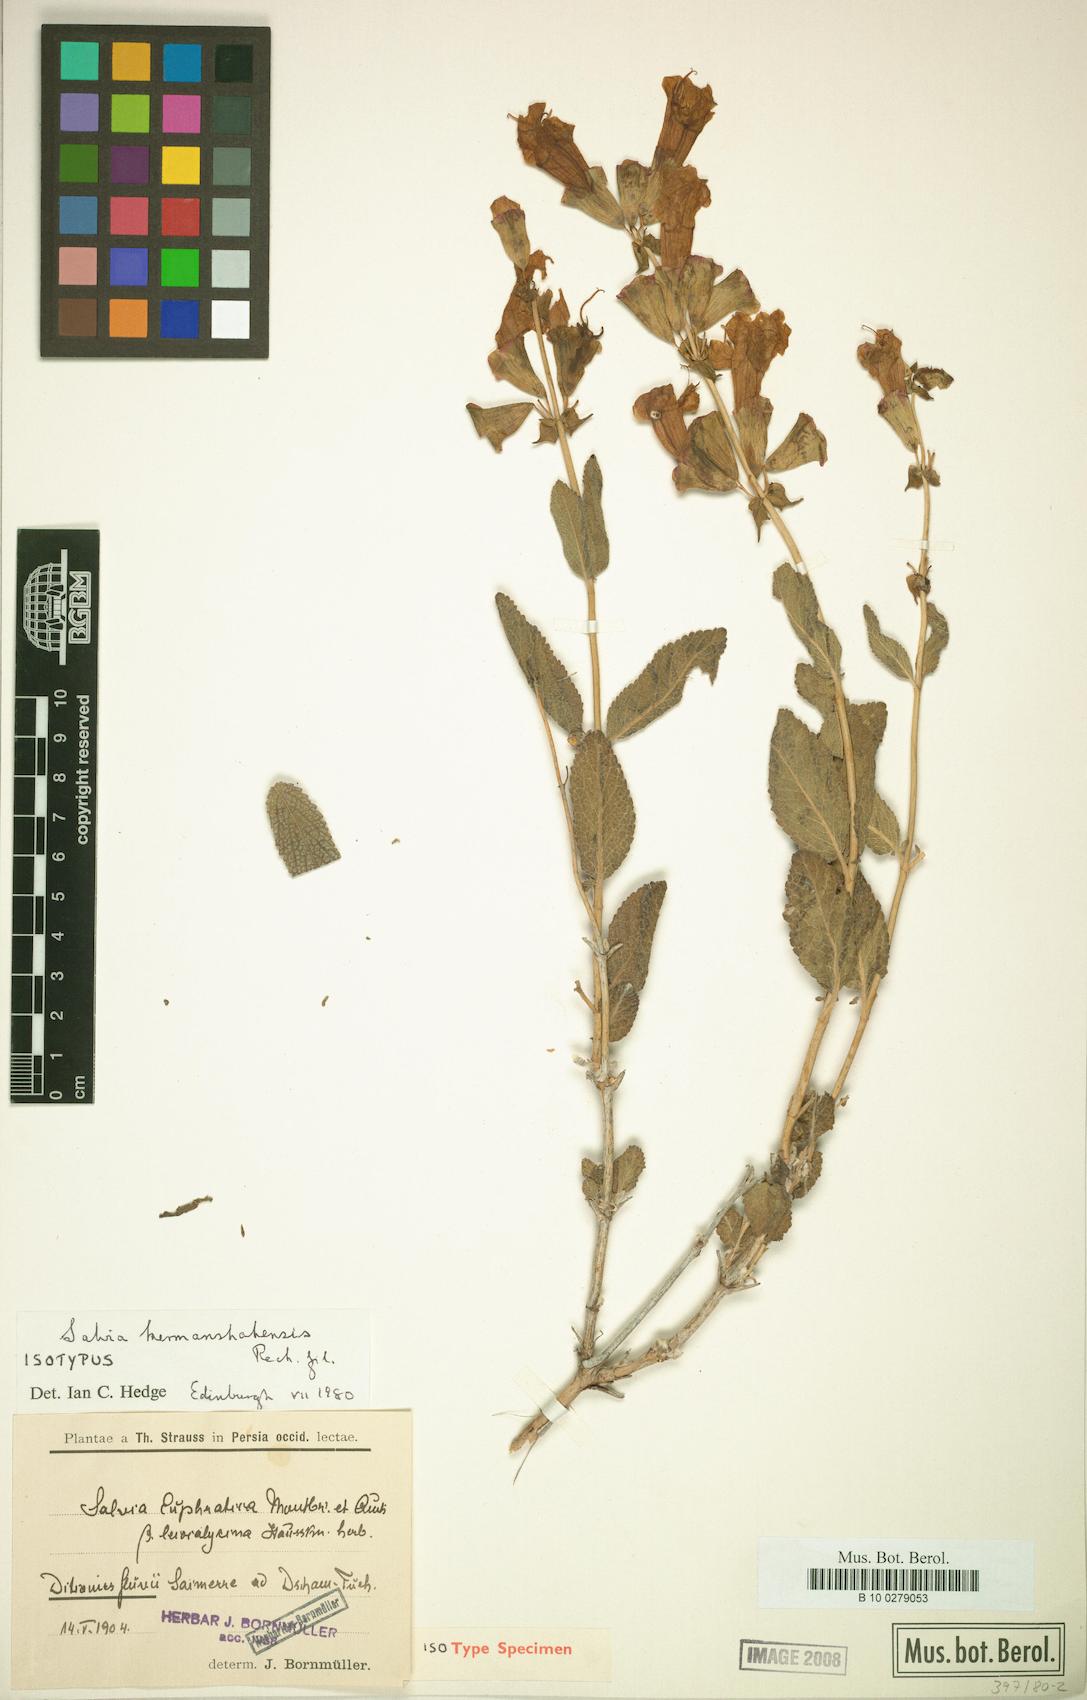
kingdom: Plantae
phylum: Tracheophyta
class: Magnoliopsida
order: Lamiales
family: Lamiaceae
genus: Salvia
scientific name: Salvia kermanshahensis
